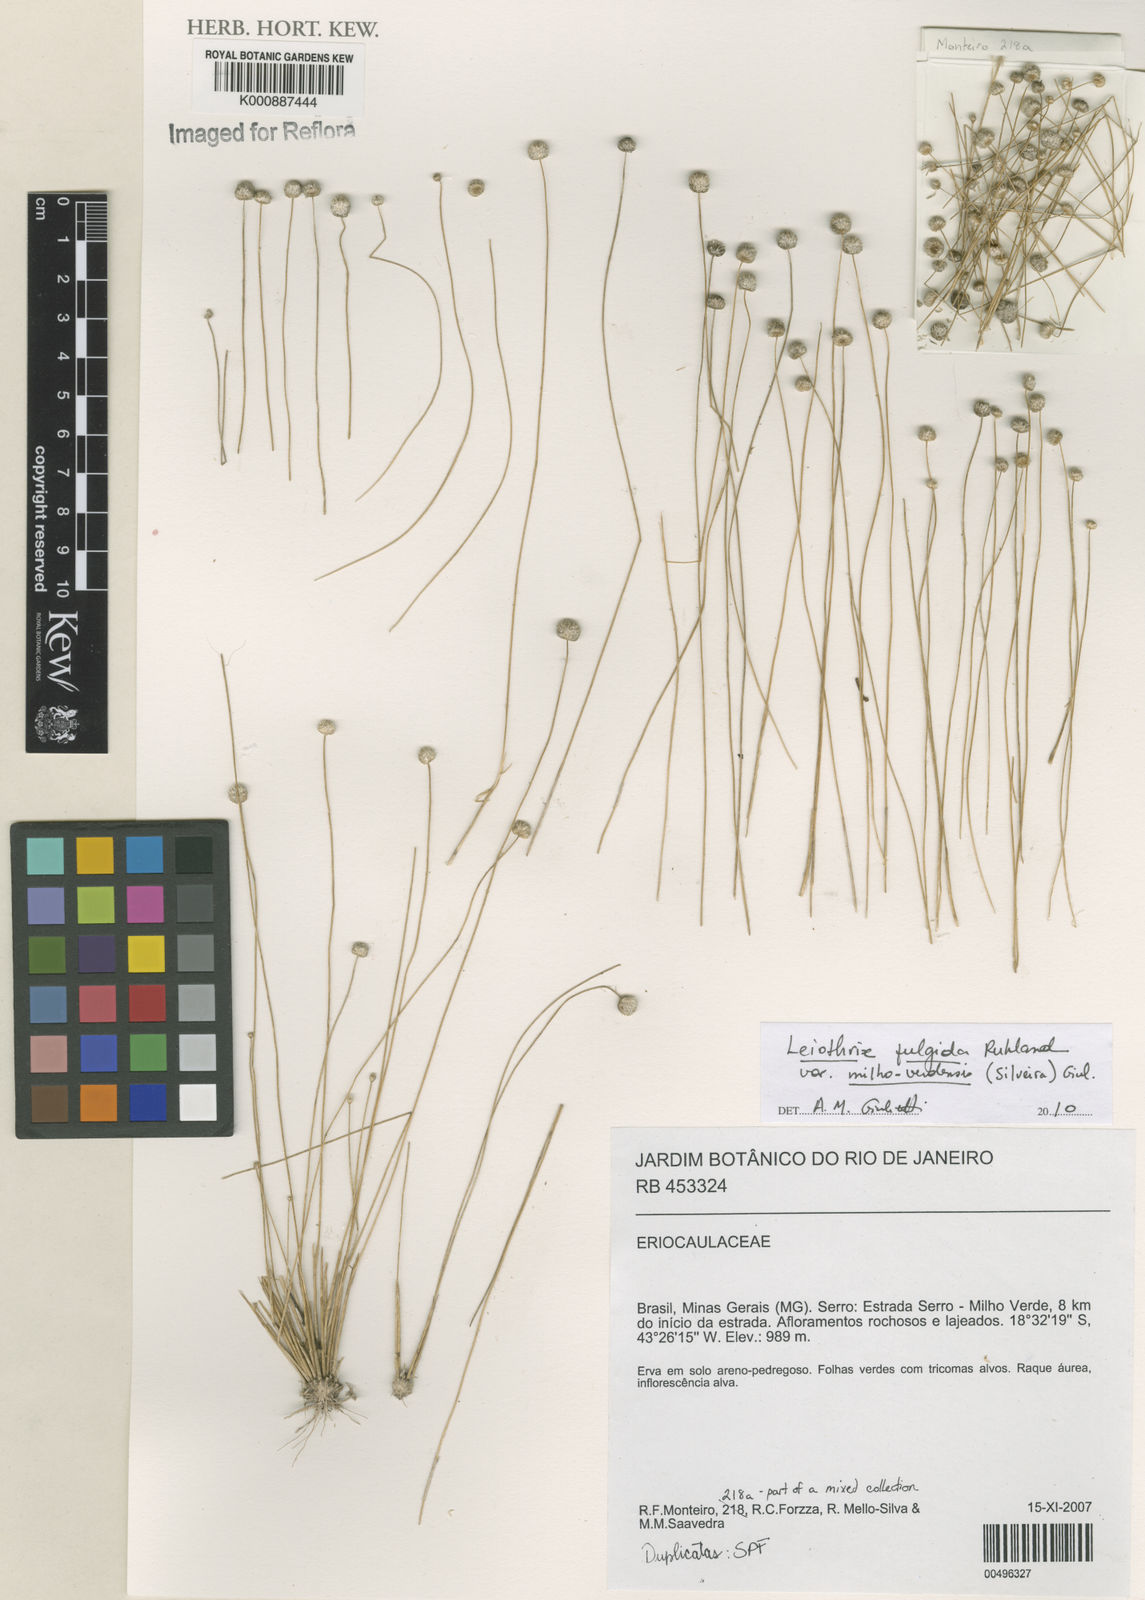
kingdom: Plantae
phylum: Tracheophyta
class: Liliopsida
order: Poales
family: Eriocaulaceae
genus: Leiothrix
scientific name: Leiothrix
